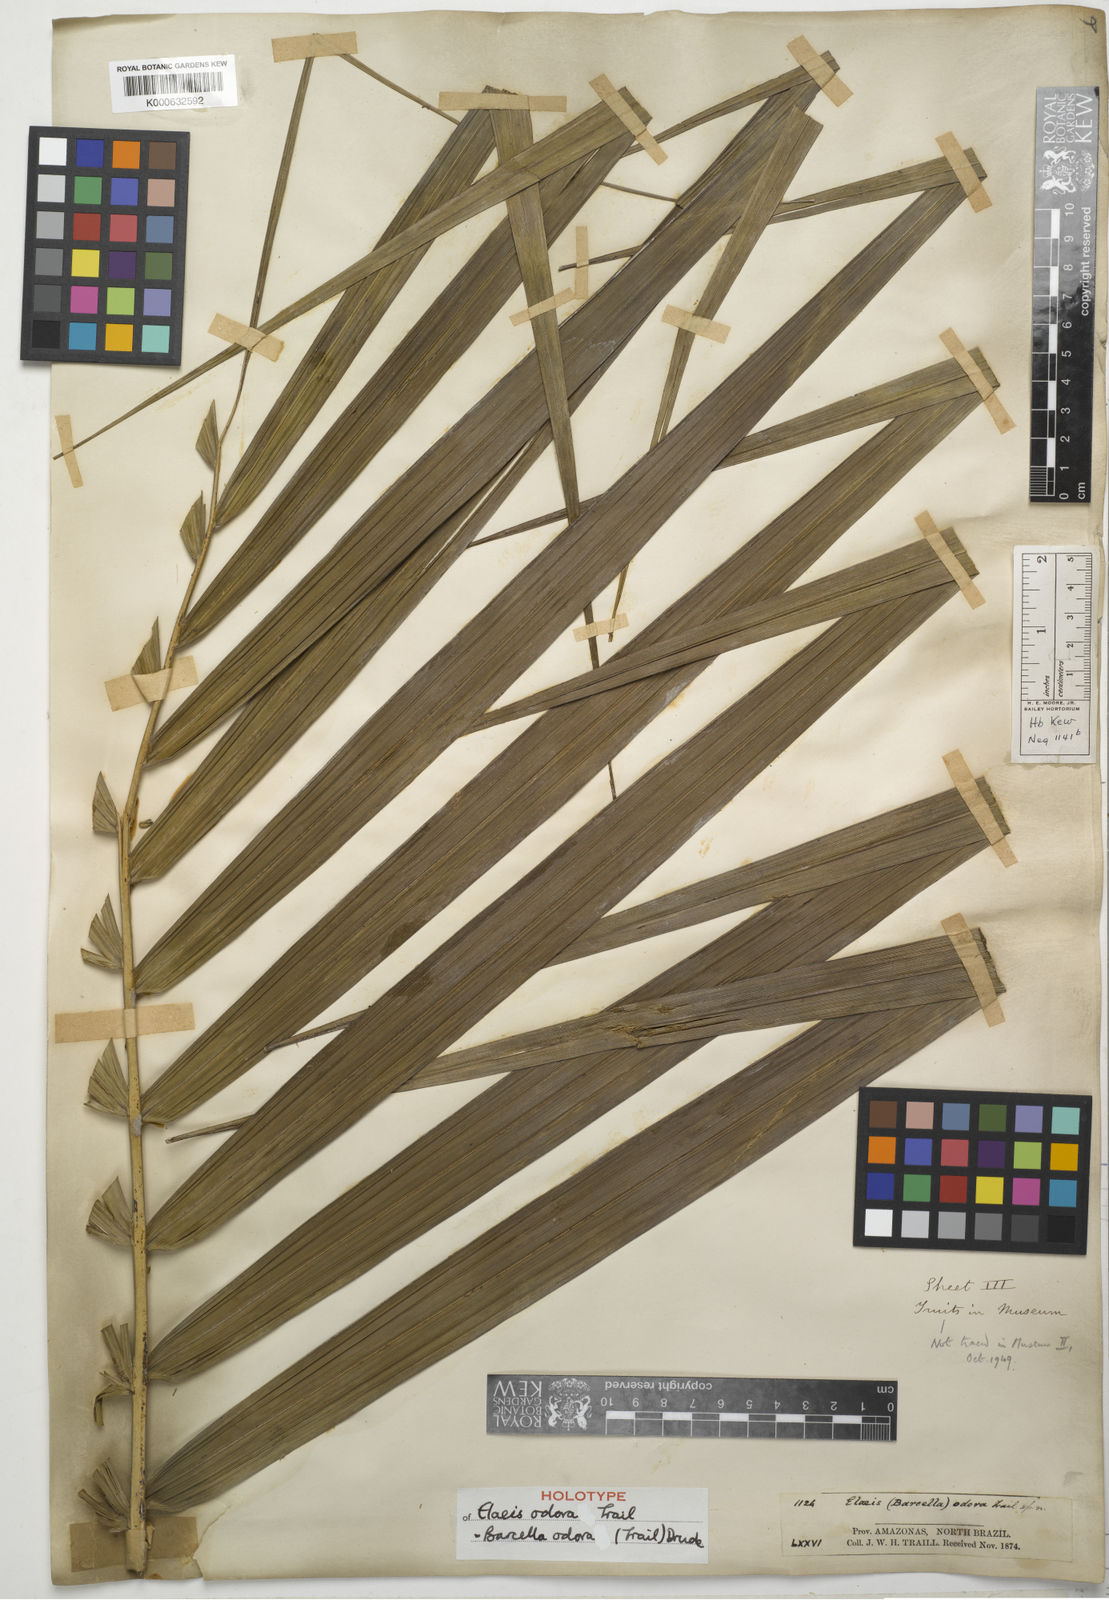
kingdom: Plantae
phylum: Tracheophyta
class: Liliopsida
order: Arecales
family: Arecaceae
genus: Barcella
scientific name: Barcella odora
